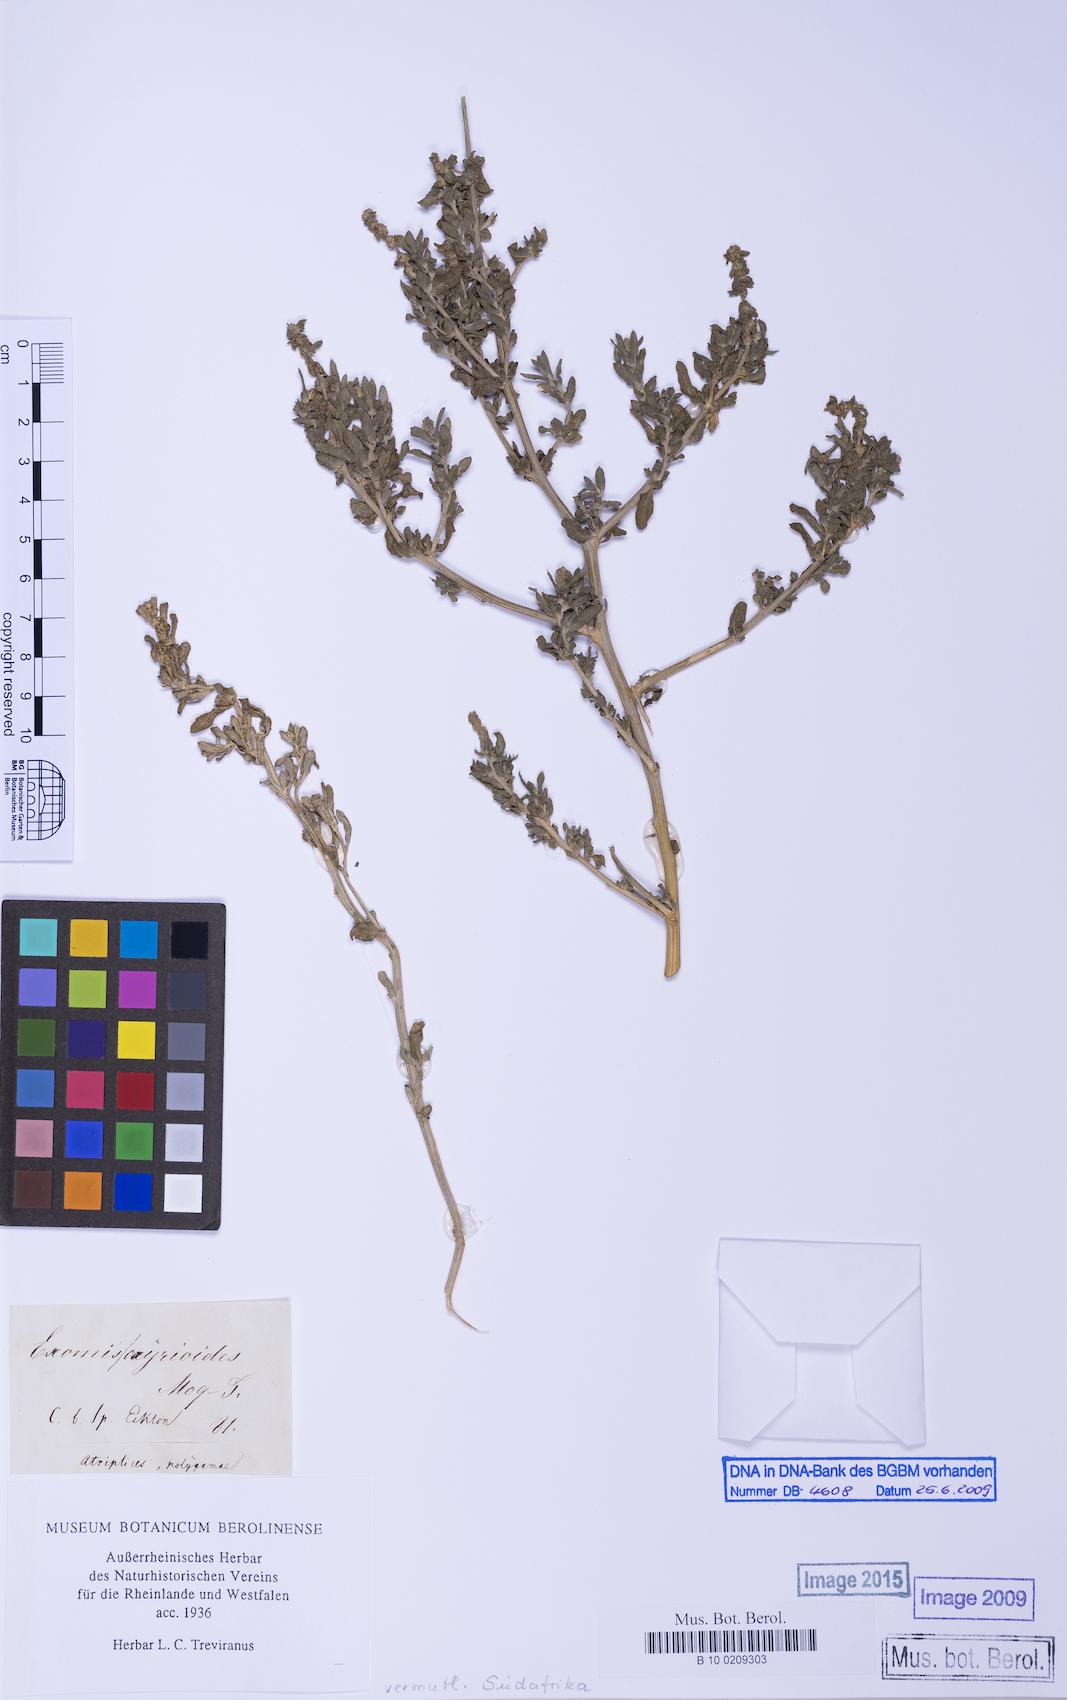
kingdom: Plantae
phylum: Tracheophyta
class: Magnoliopsida
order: Caryophyllales
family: Amaranthaceae
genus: Exomis
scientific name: Exomis microphylla
